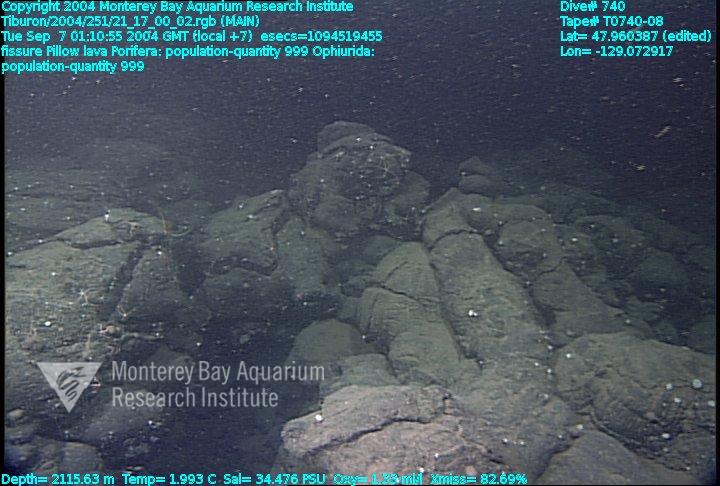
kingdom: Animalia
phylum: Porifera
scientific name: Porifera
